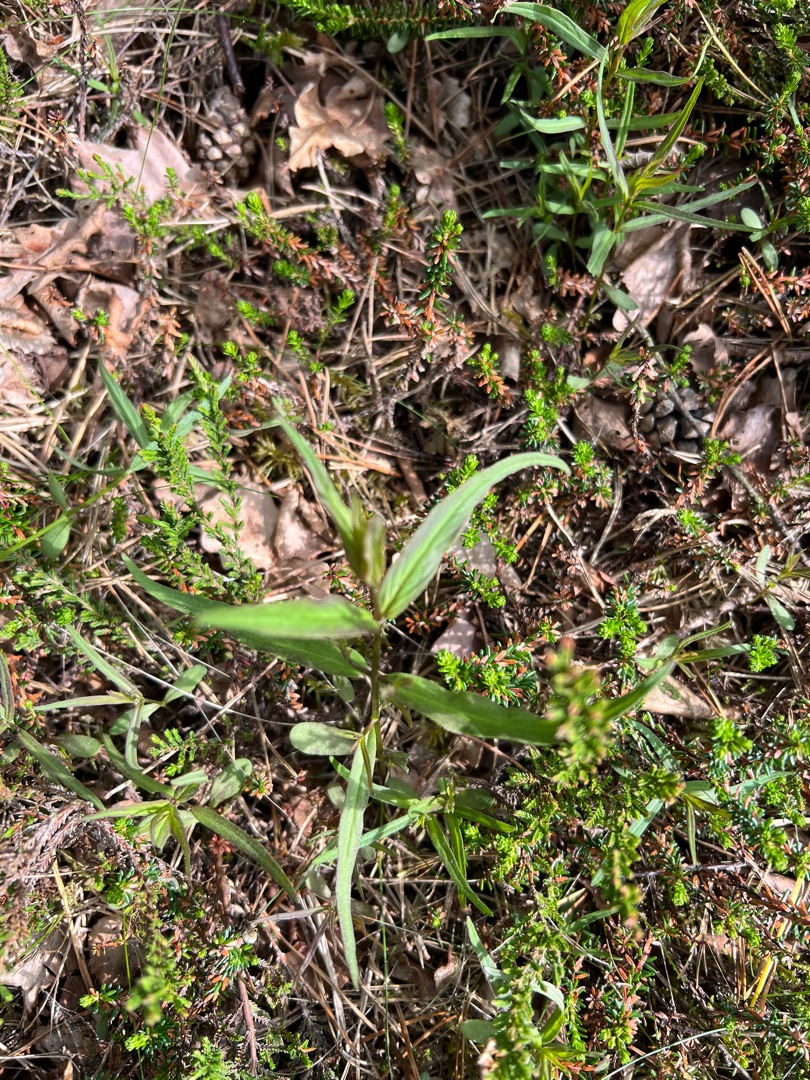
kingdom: Plantae
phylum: Tracheophyta
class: Magnoliopsida
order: Lamiales
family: Orobanchaceae
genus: Melampyrum
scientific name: Melampyrum pratense
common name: Almindelig kohvede
